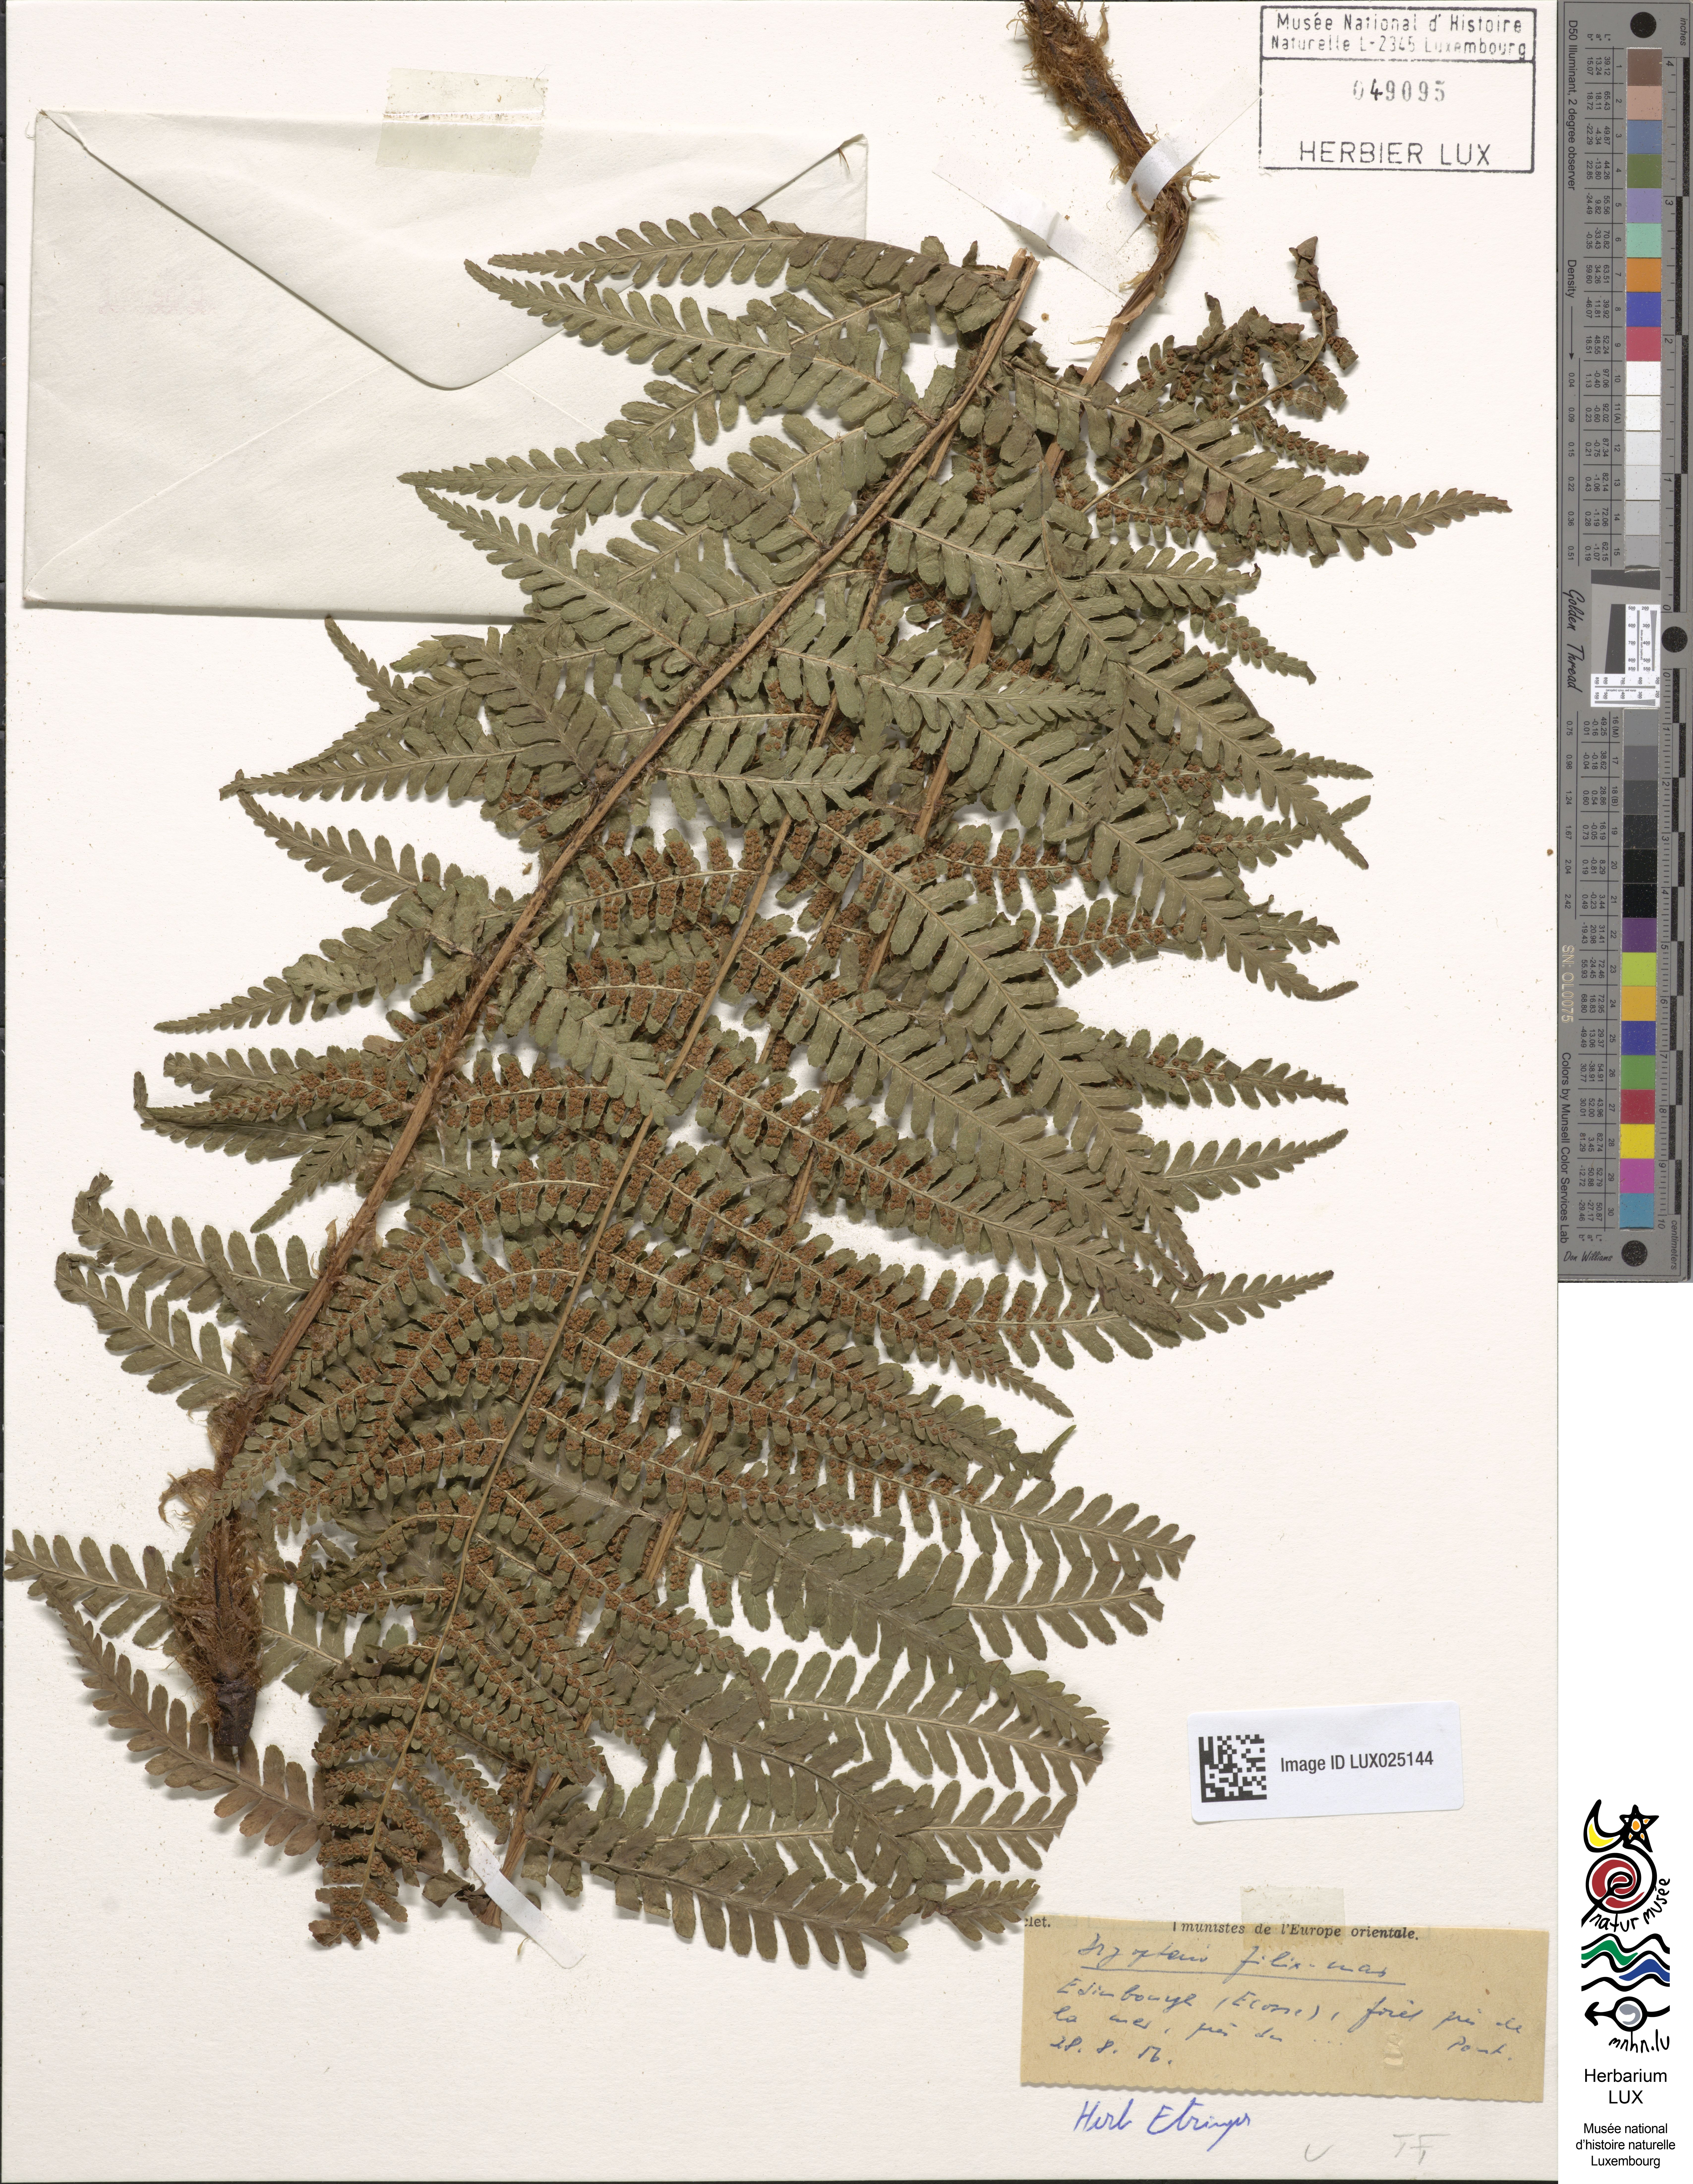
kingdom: Plantae
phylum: Tracheophyta
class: Polypodiopsida
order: Polypodiales
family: Dryopteridaceae
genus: Dryopteris
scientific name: Dryopteris filix-mas
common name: Male fern
